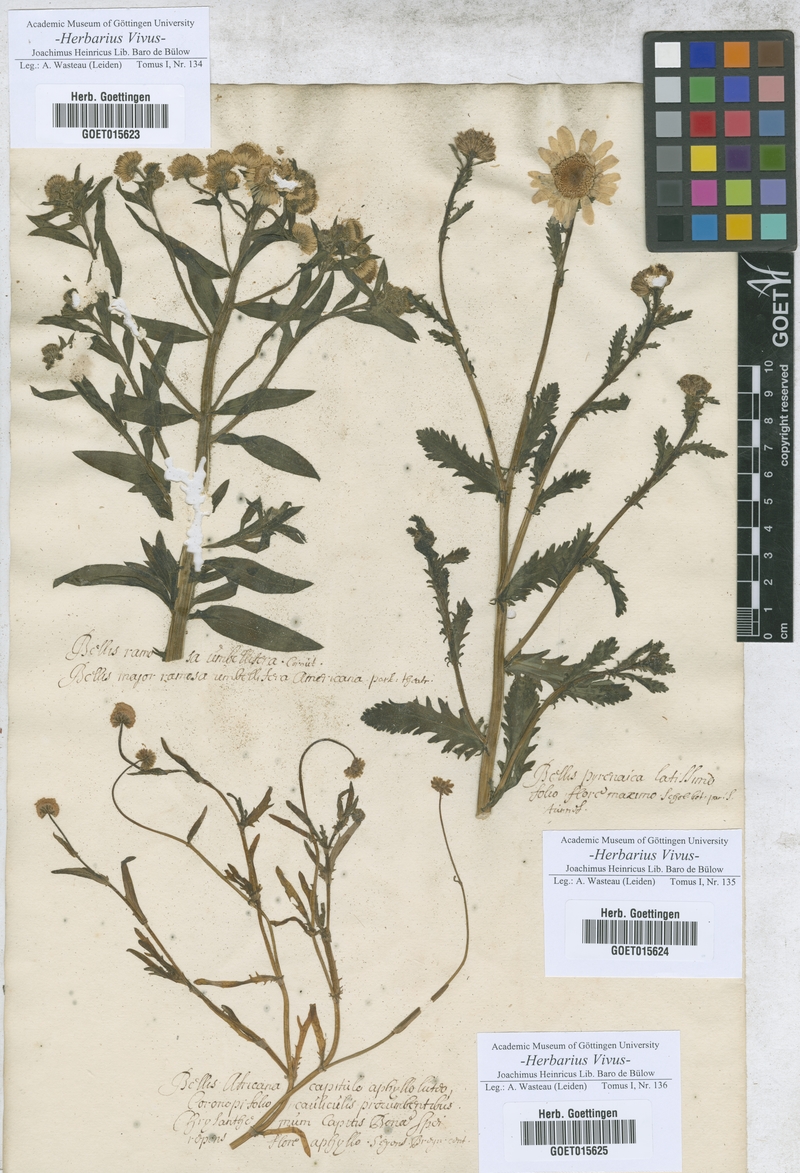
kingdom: Plantae
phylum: Tracheophyta
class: Magnoliopsida
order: Asterales
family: Asteraceae
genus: Bellis
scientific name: Bellis
